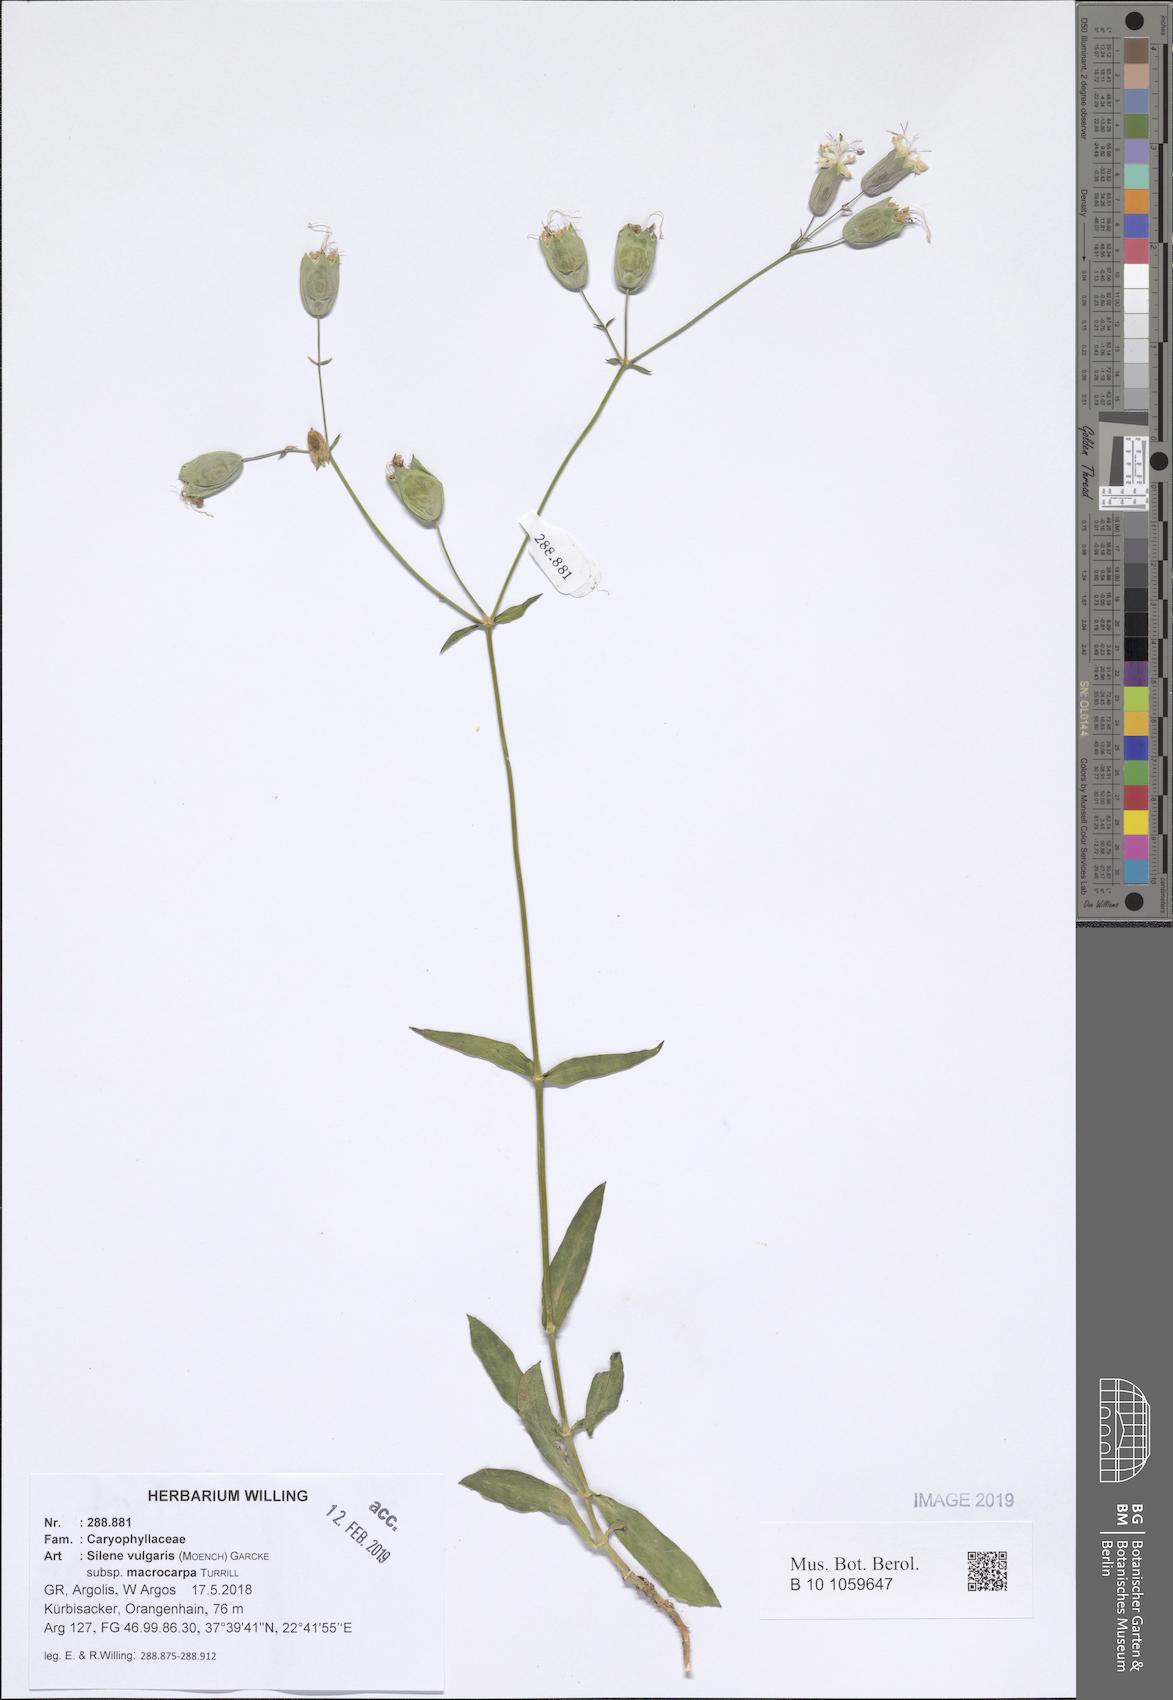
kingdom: Plantae
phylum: Tracheophyta
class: Magnoliopsida
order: Caryophyllales
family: Caryophyllaceae
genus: Silene
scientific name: Silene vulgaris
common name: Bladder campion
